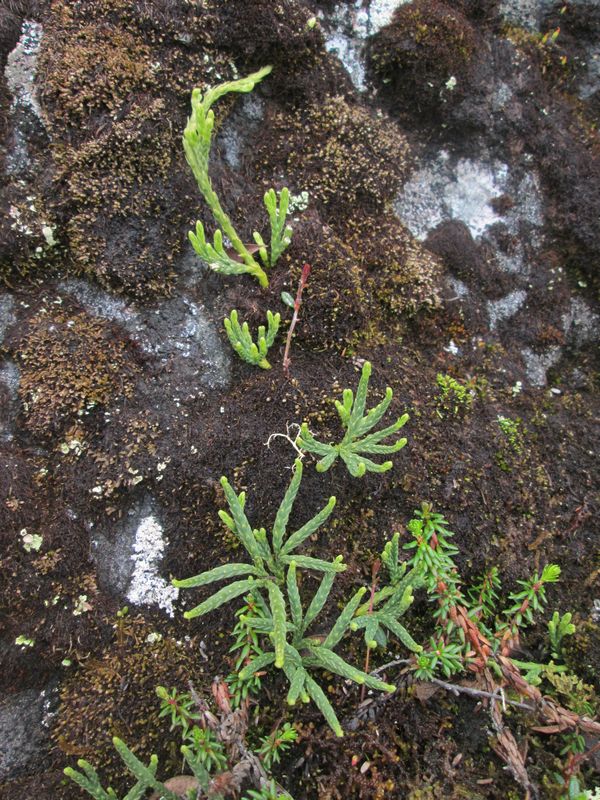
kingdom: Plantae
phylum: Tracheophyta
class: Lycopodiopsida
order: Lycopodiales
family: Lycopodiaceae
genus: Diphasiastrum
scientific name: Diphasiastrum alpinum
